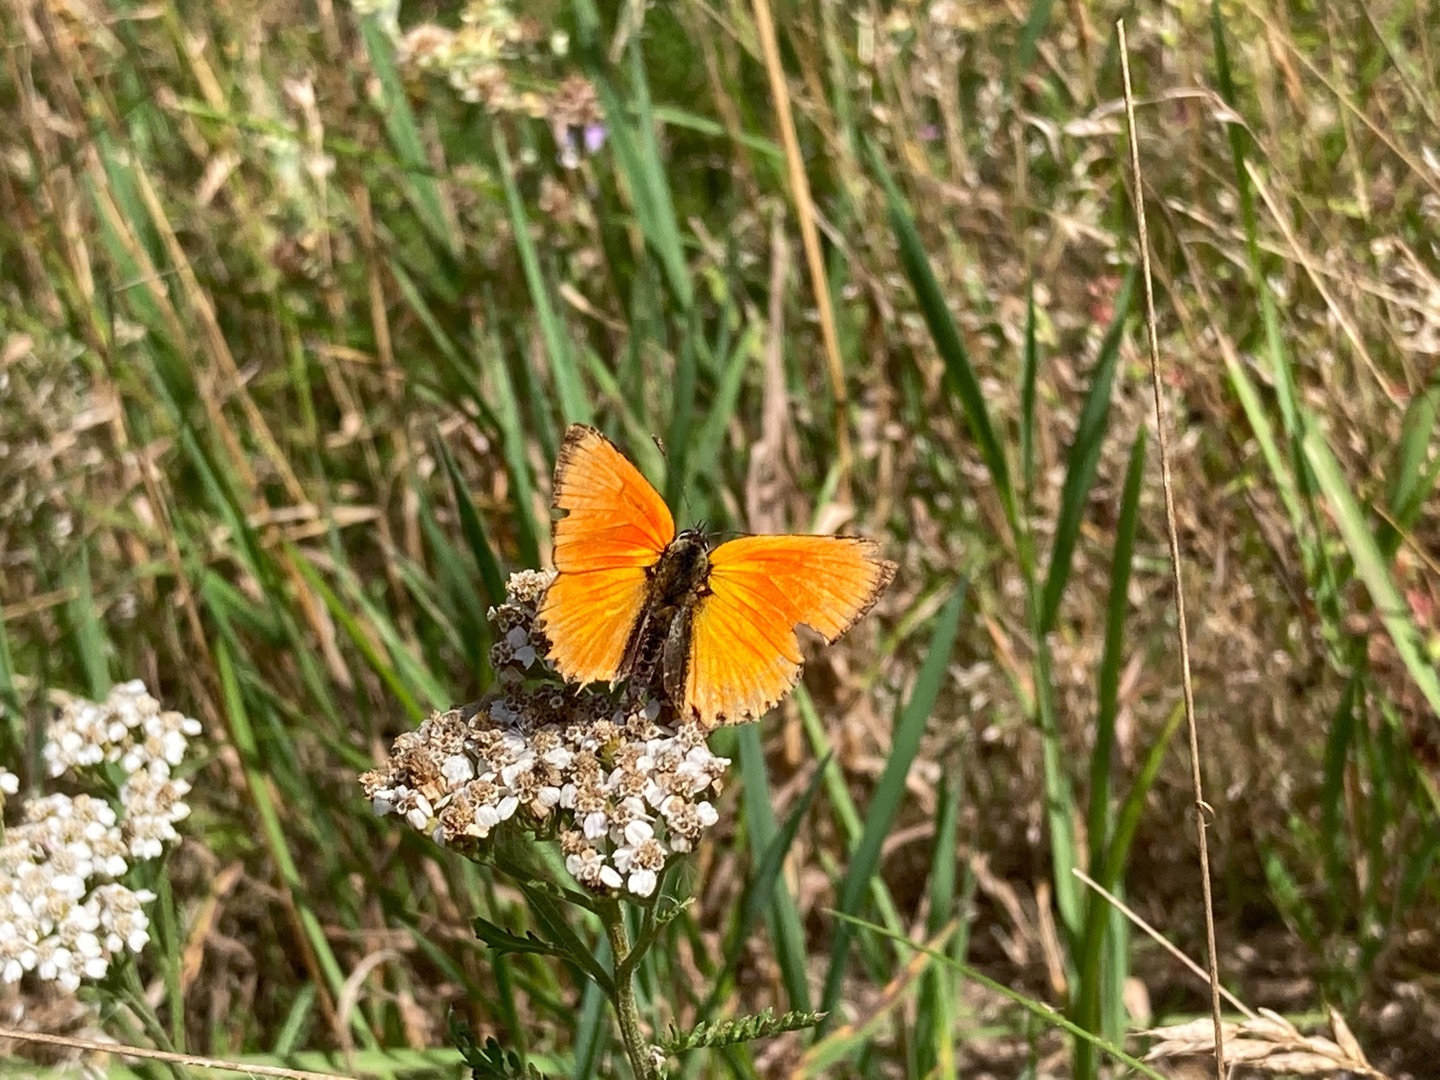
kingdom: Animalia
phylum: Arthropoda
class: Insecta
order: Lepidoptera
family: Lycaenidae
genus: Lycaena
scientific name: Lycaena virgaureae
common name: Dukatsommerfugl
